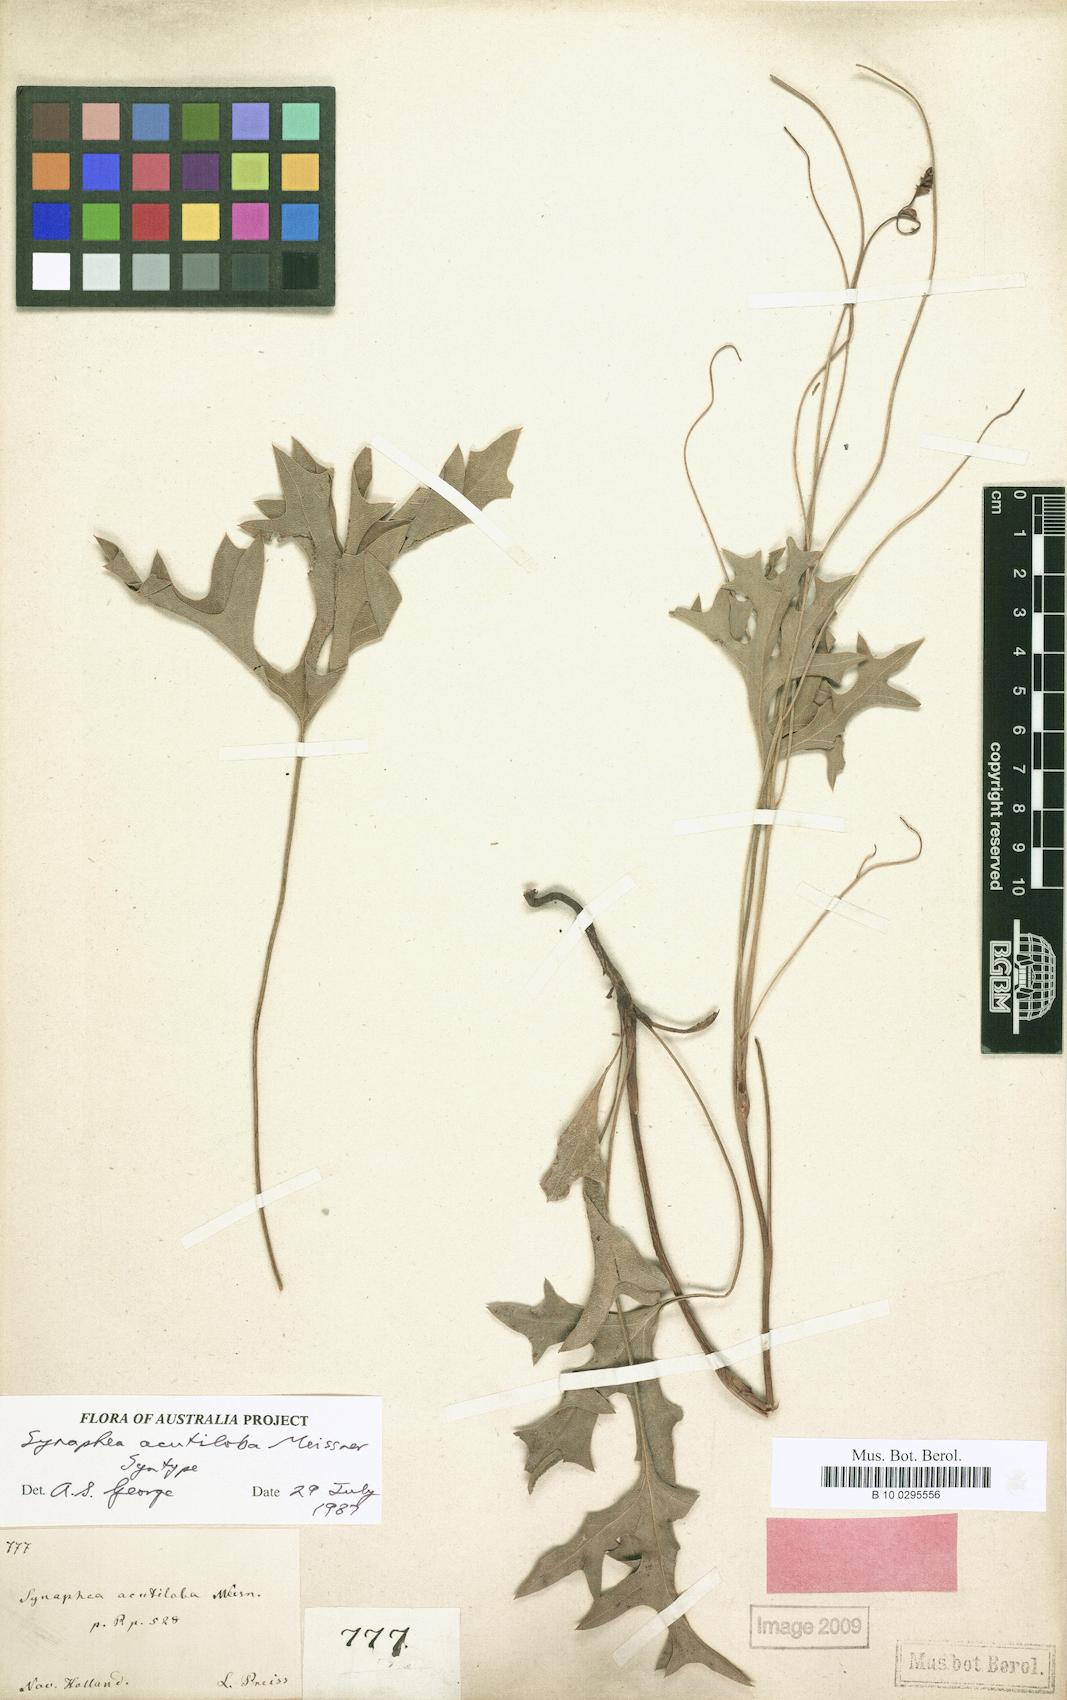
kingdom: Plantae
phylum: Tracheophyta
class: Magnoliopsida
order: Proteales
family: Proteaceae
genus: Synaphea
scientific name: Synaphea acutiloba
